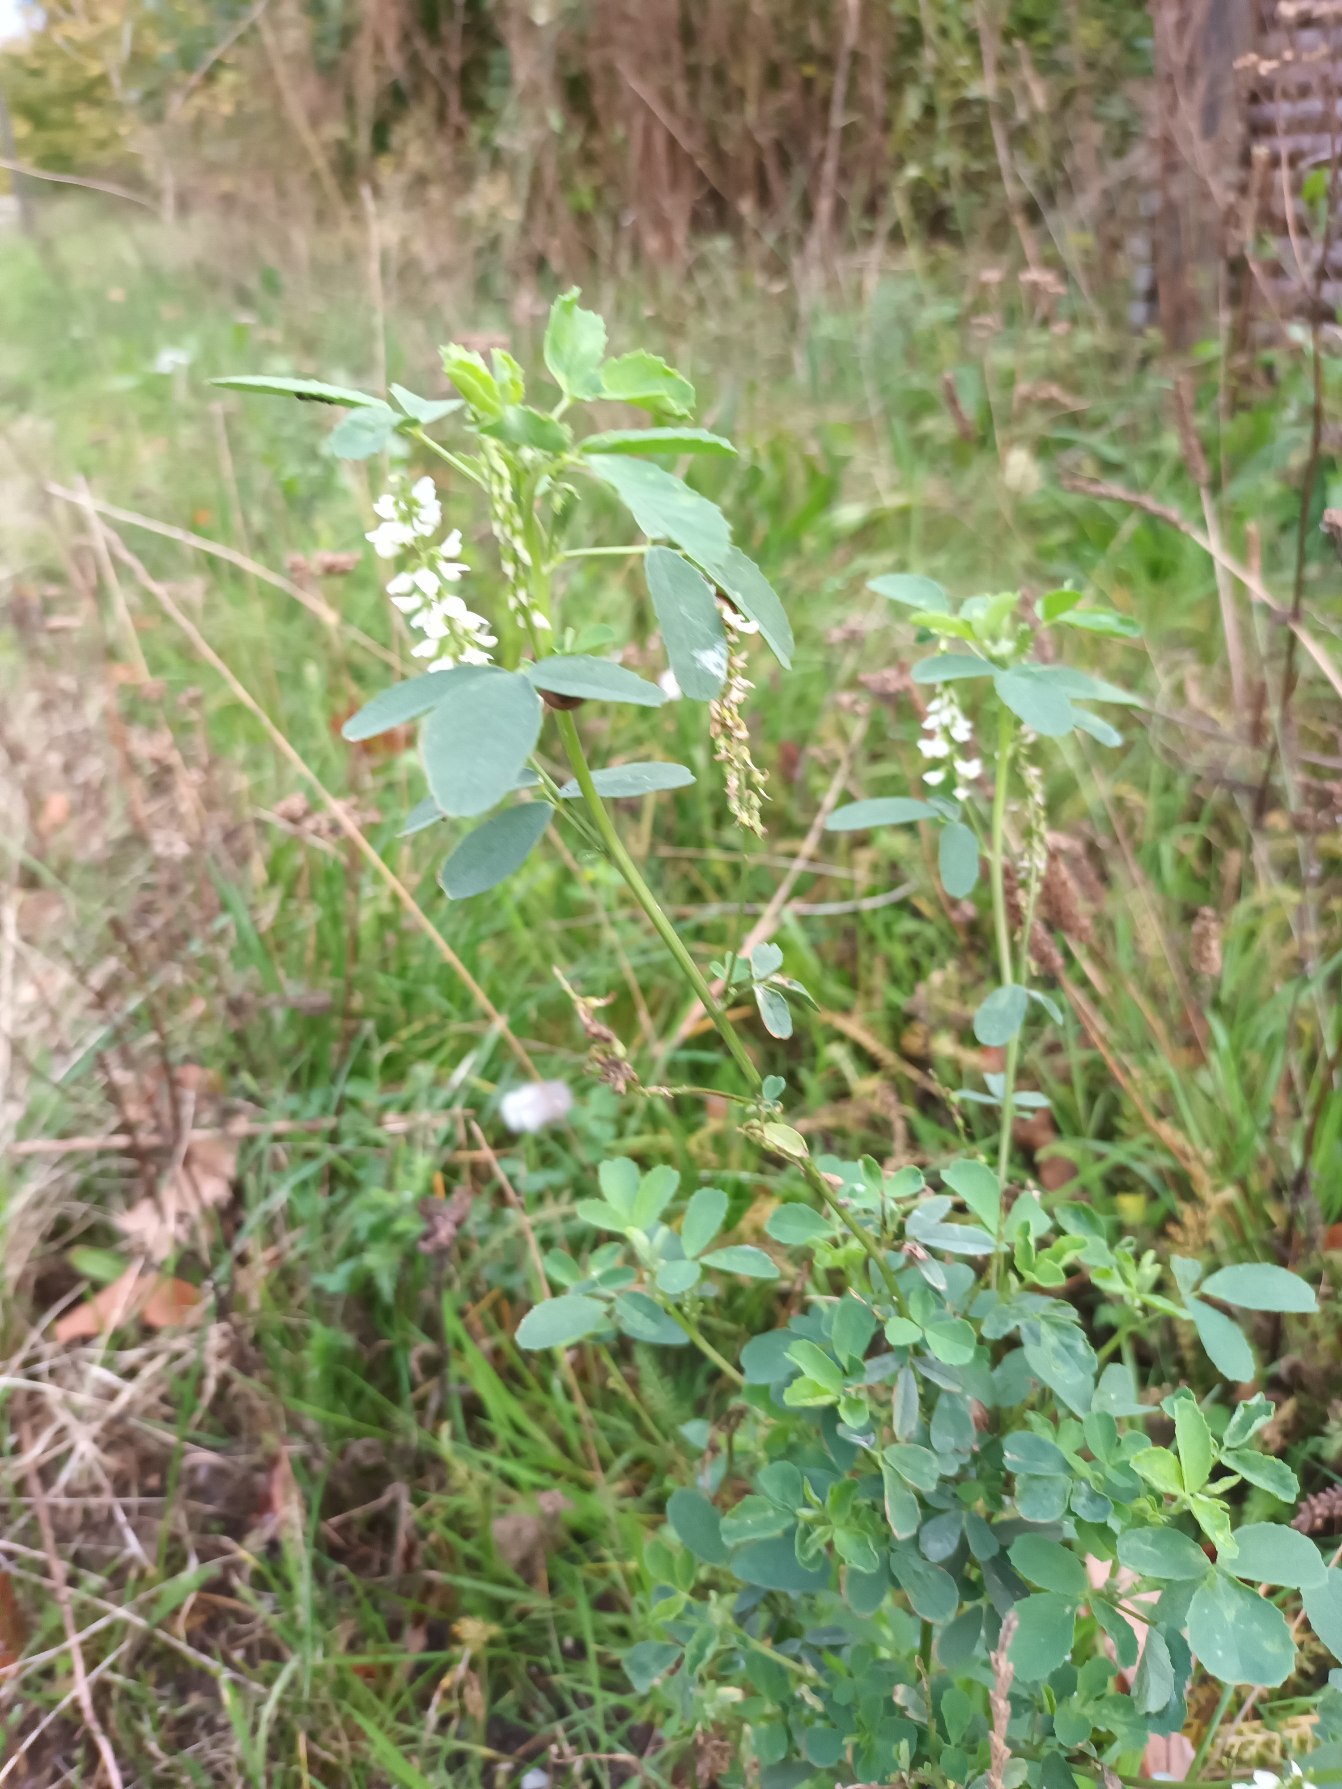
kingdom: Plantae
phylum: Tracheophyta
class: Magnoliopsida
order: Fabales
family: Fabaceae
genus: Melilotus
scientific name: Melilotus albus
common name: Hvid stenkløver
